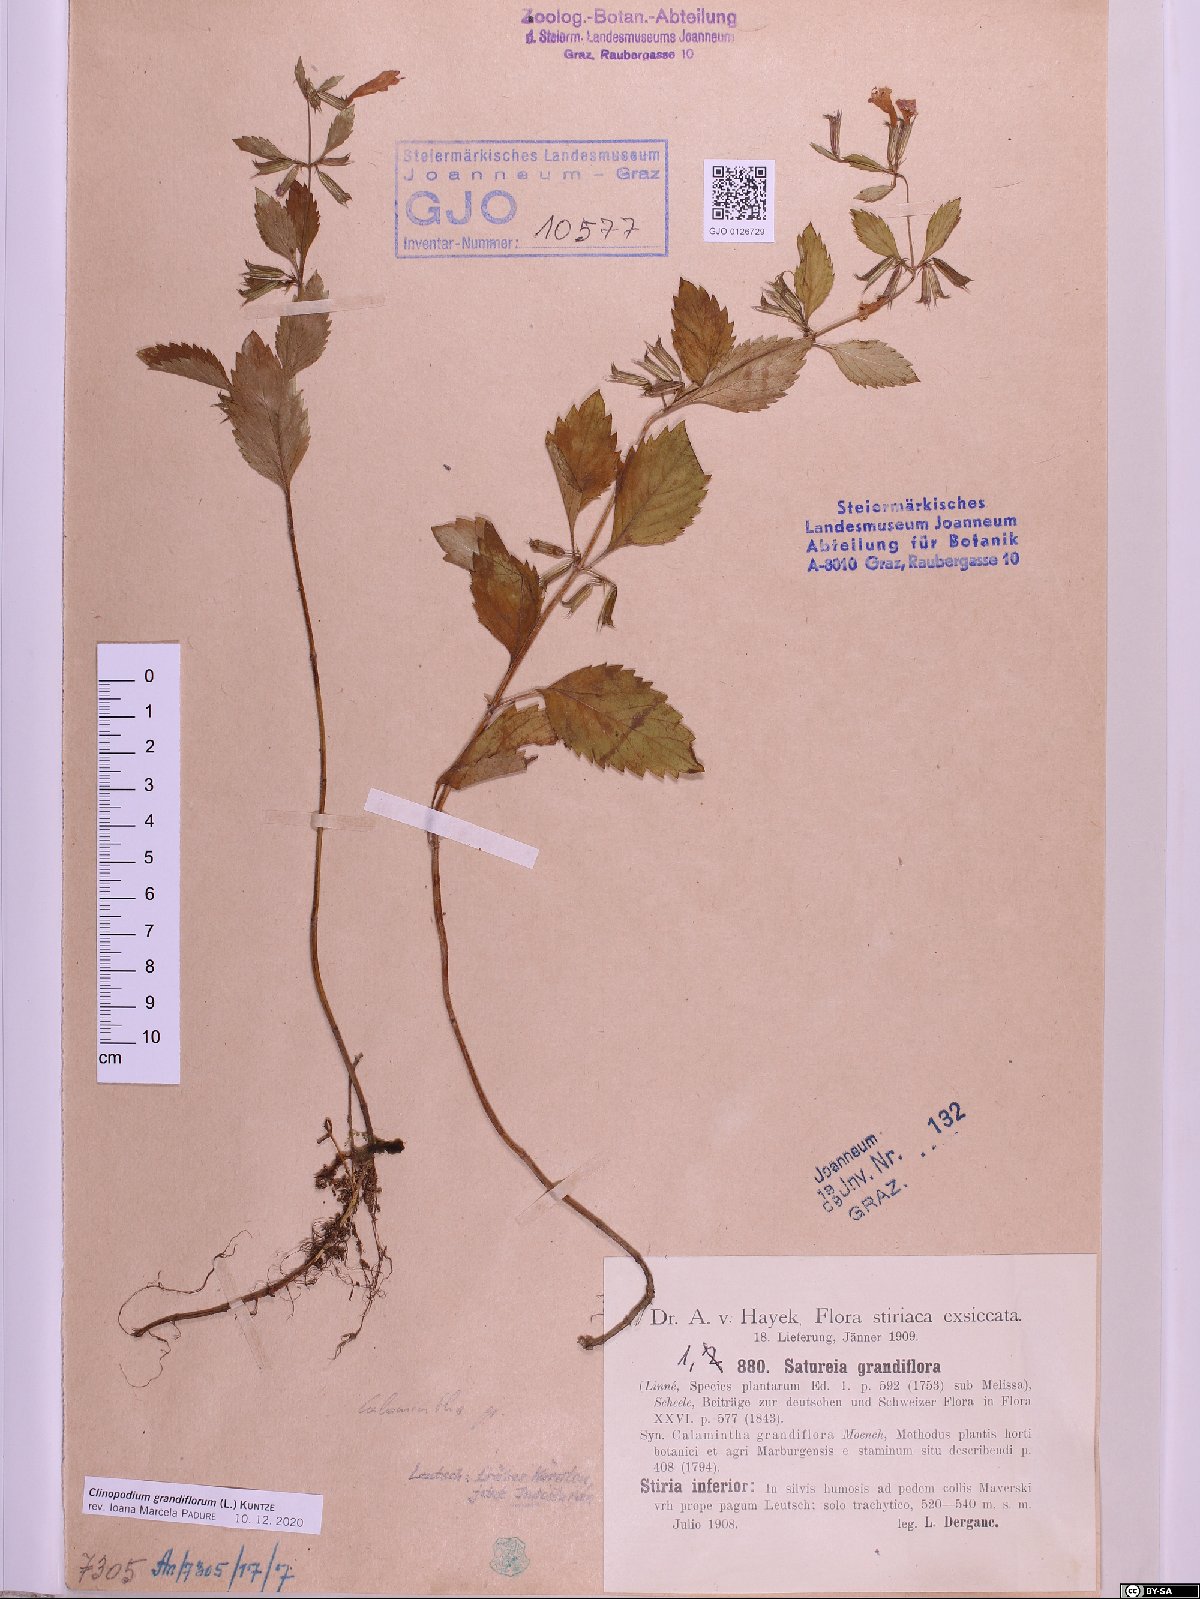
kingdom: Plantae
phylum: Tracheophyta
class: Magnoliopsida
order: Lamiales
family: Lamiaceae
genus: Clinopodium
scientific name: Clinopodium grandiflorum
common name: Greater calamint
